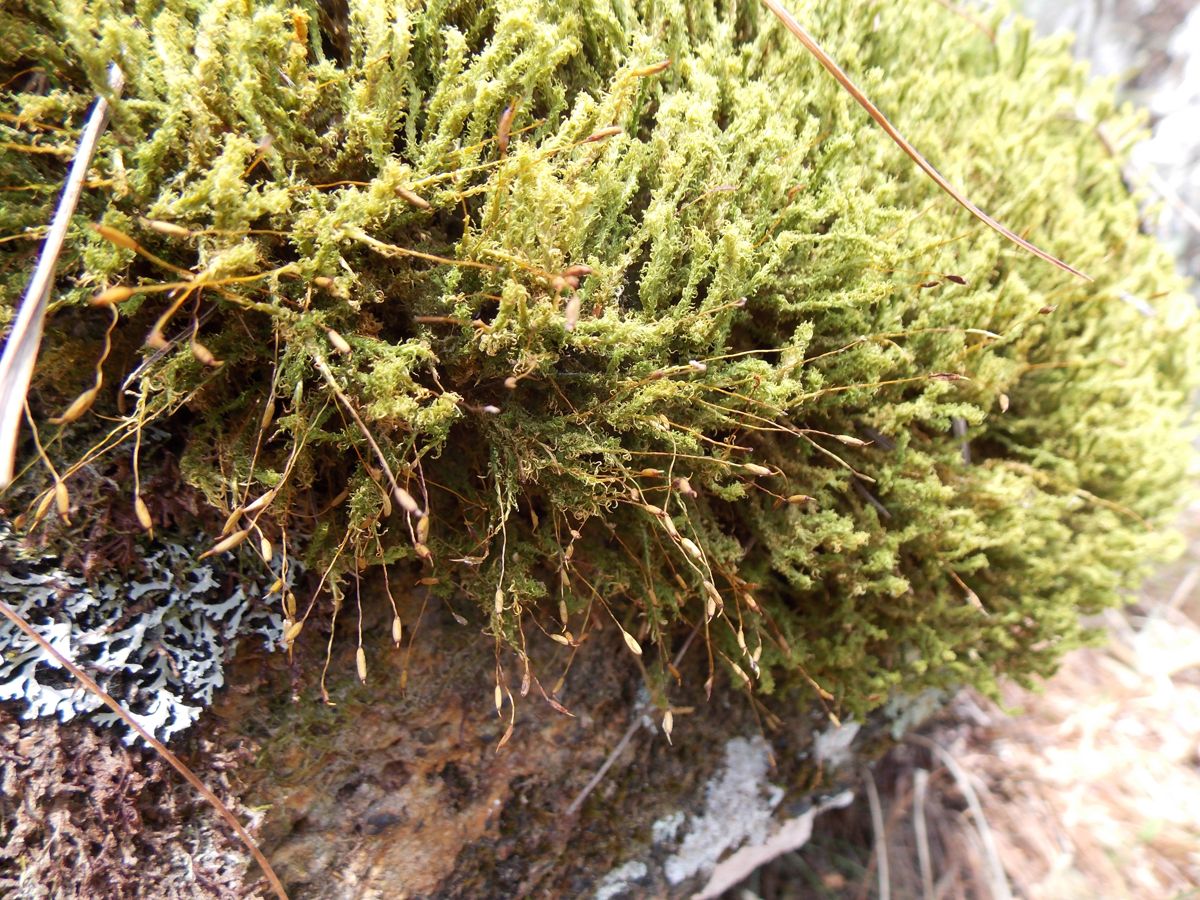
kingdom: Plantae
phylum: Bryophyta
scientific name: Bryophyta
